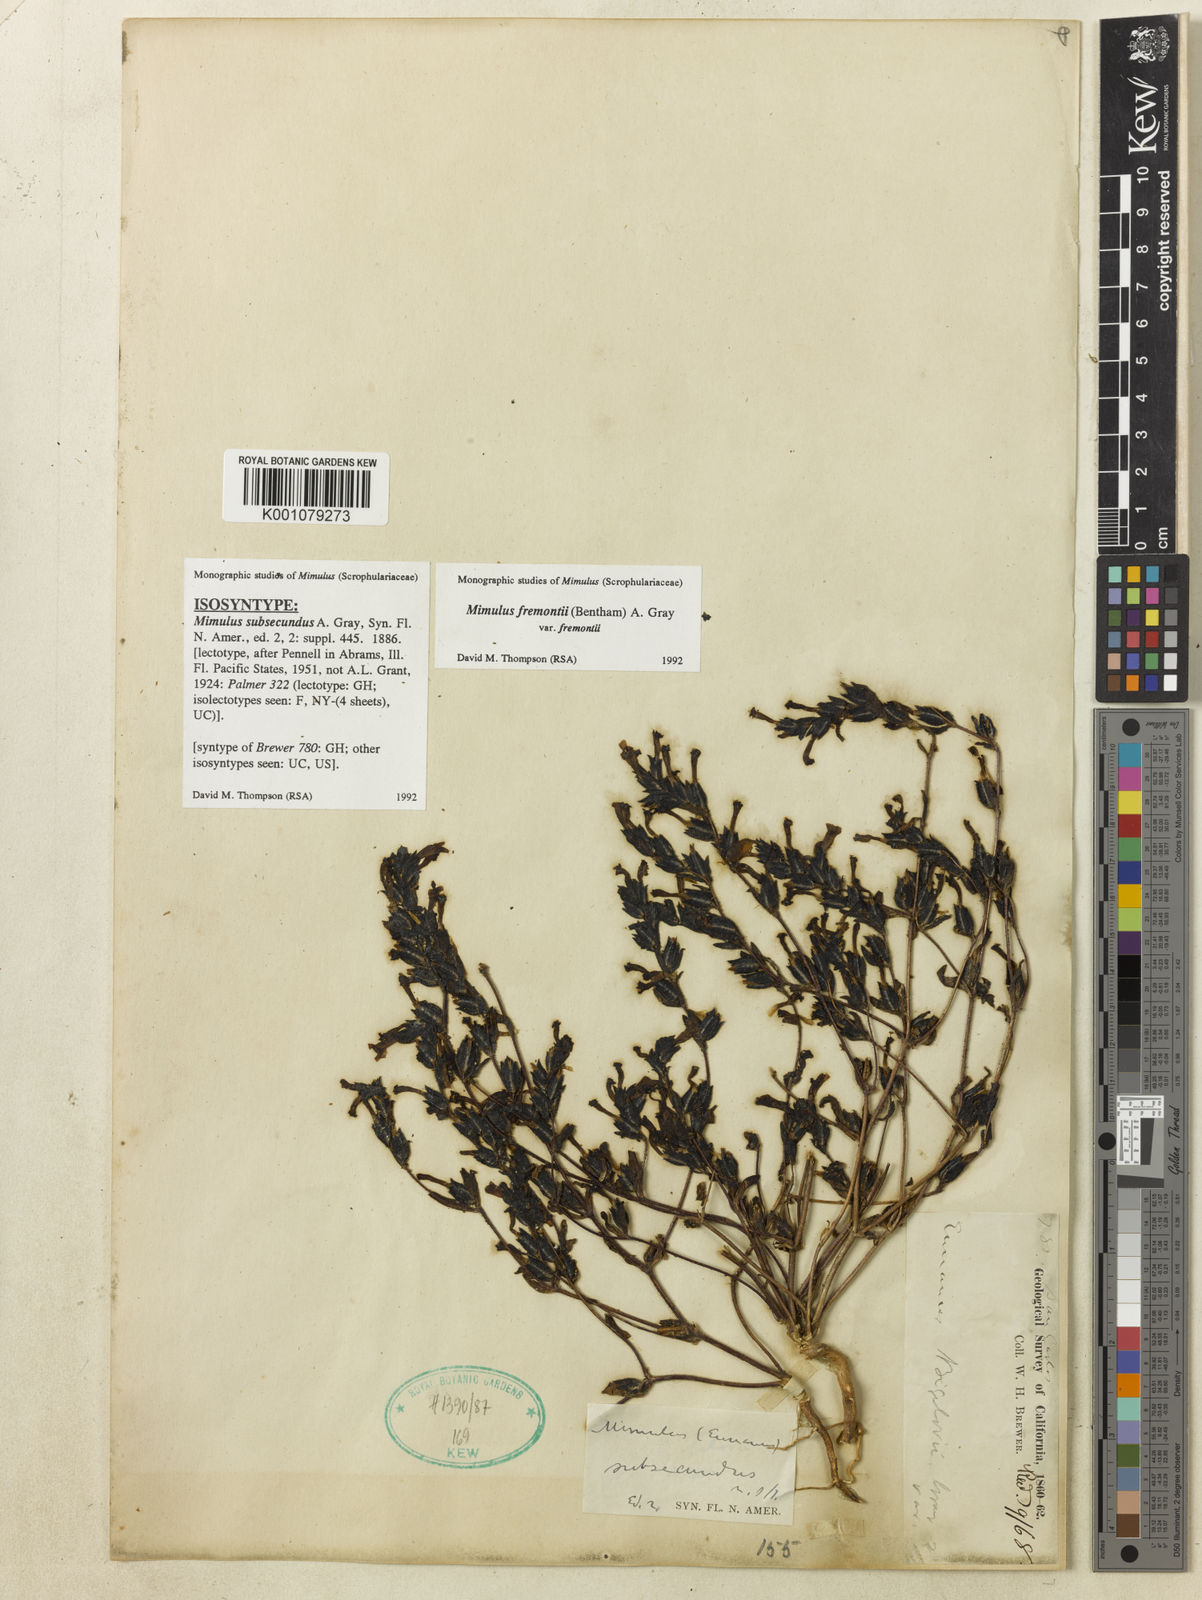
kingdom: Plantae
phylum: Tracheophyta
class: Magnoliopsida
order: Lamiales
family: Phrymaceae
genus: Diplacus
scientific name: Diplacus fremontii
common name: Fremont's monkey-flower
